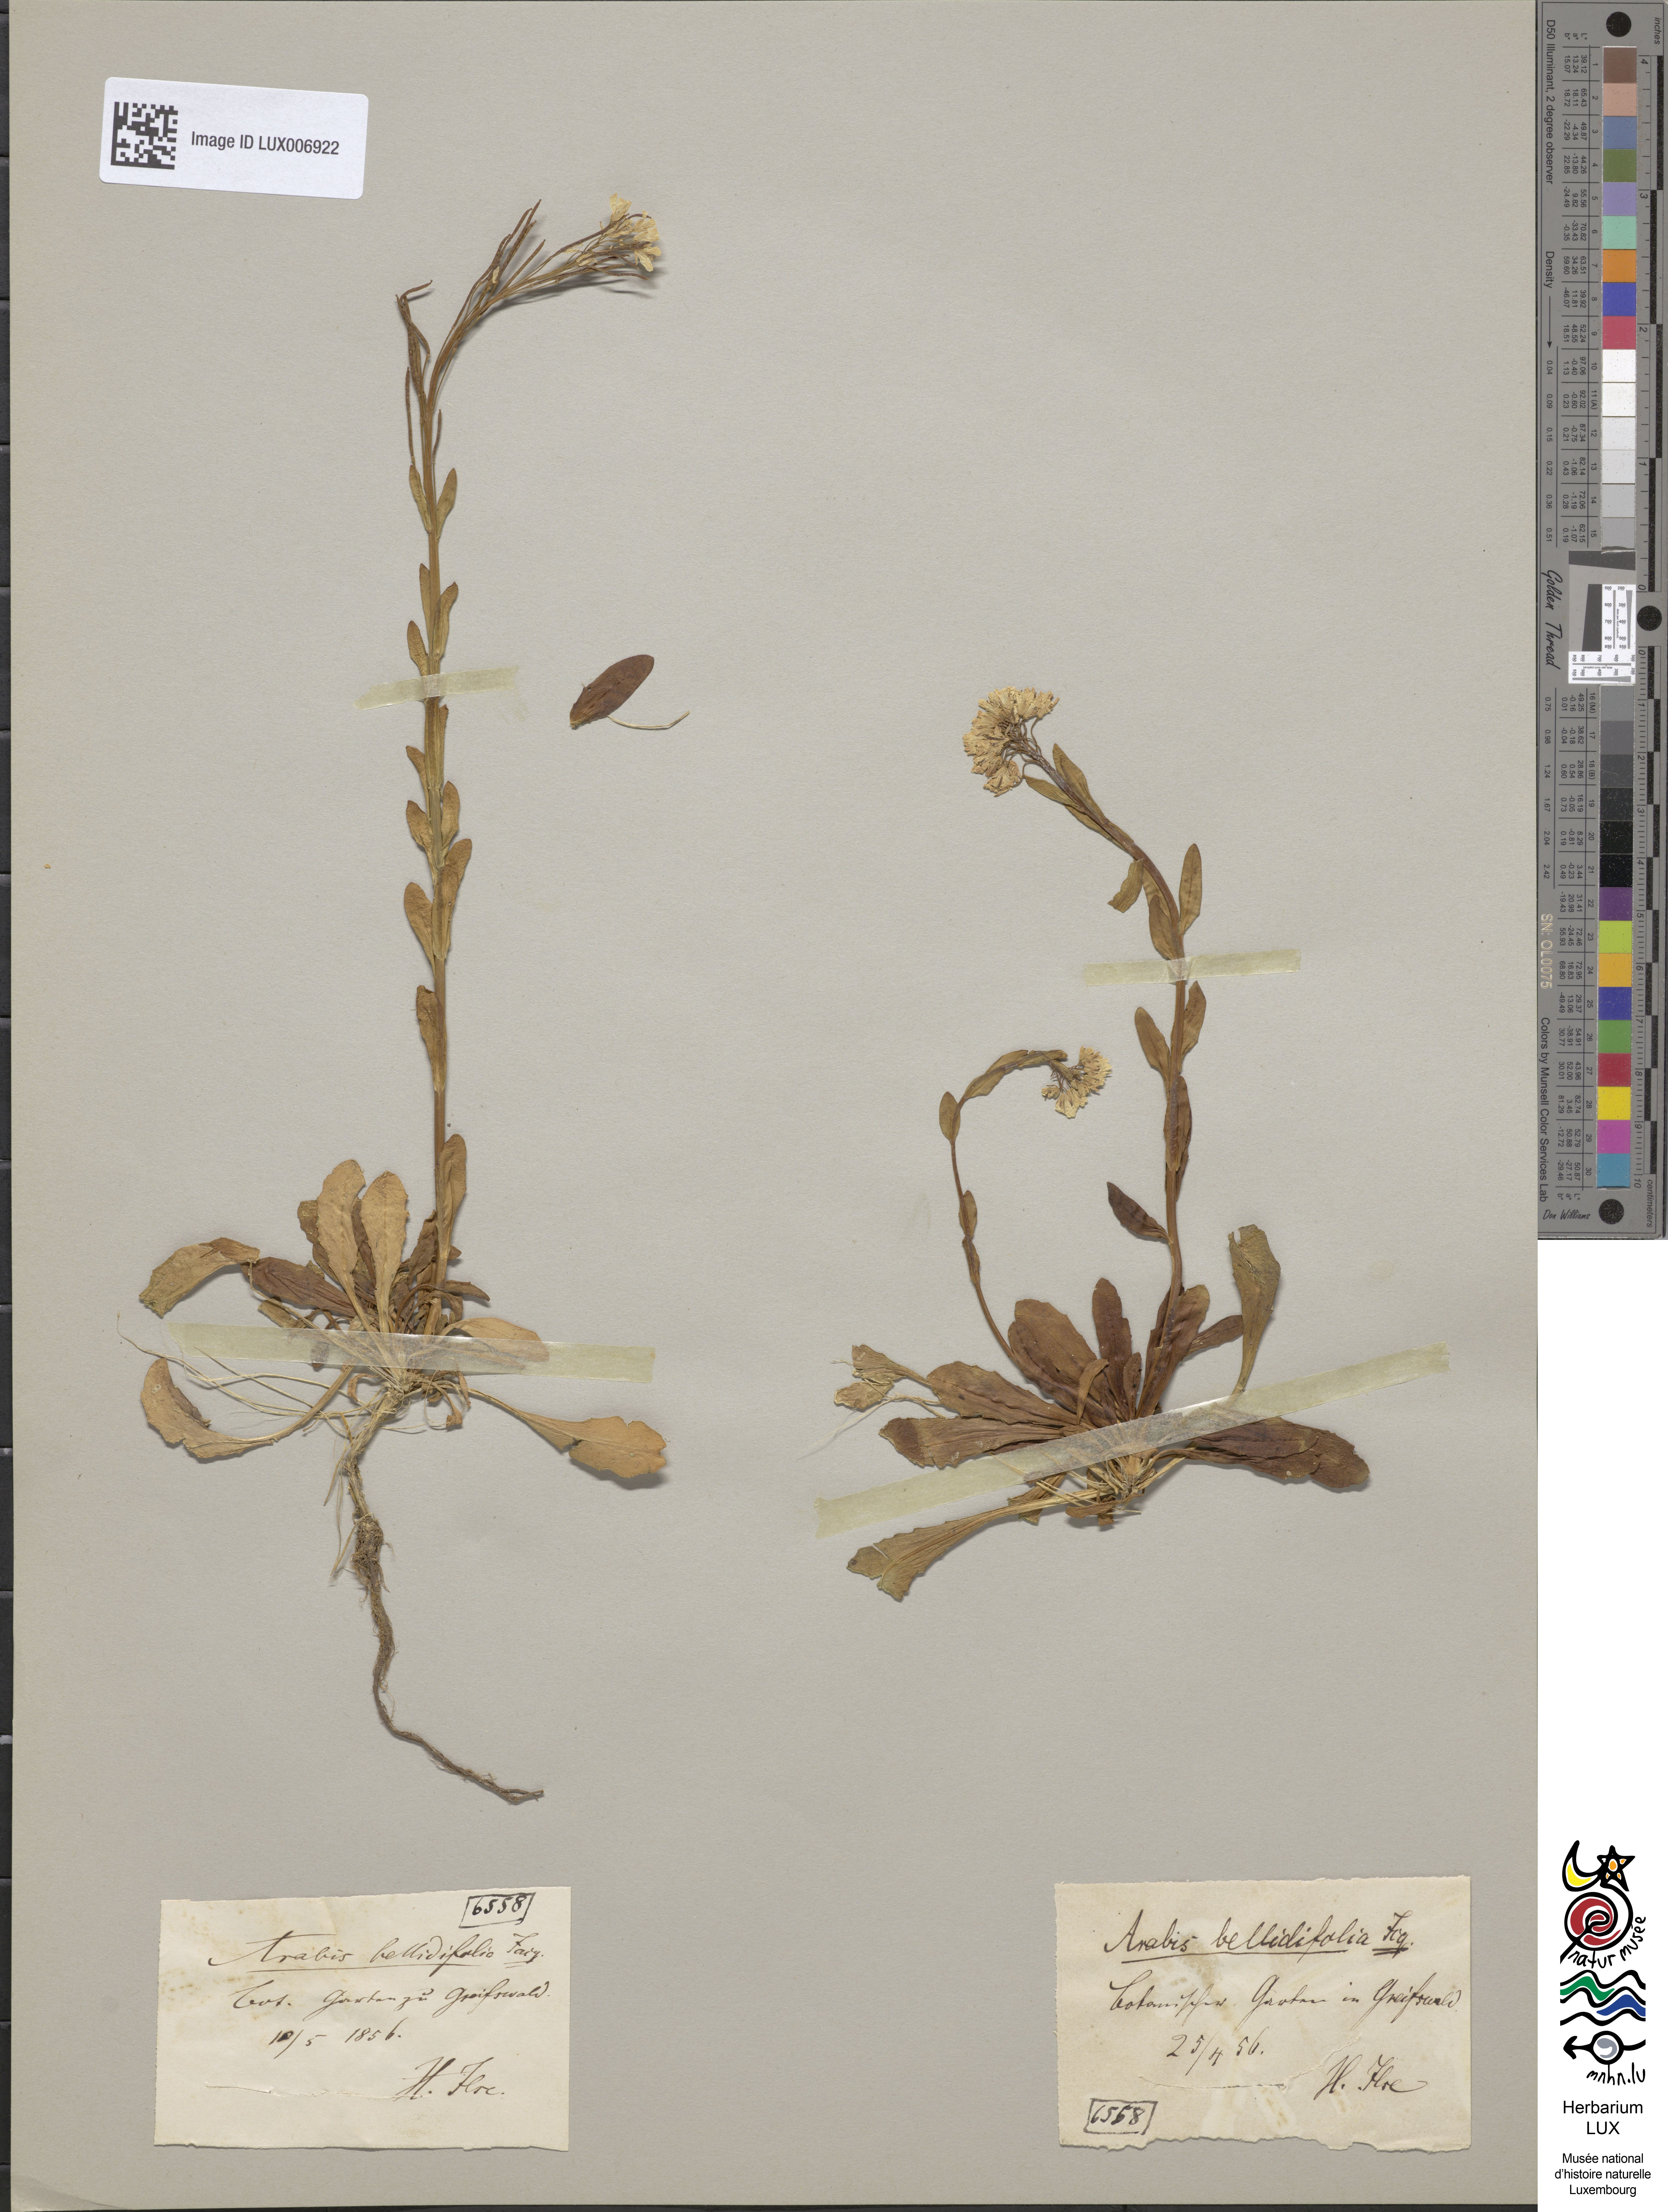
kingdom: Plantae
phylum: Tracheophyta
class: Magnoliopsida
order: Brassicales
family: Brassicaceae
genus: Arabis
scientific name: Arabis soyeri
